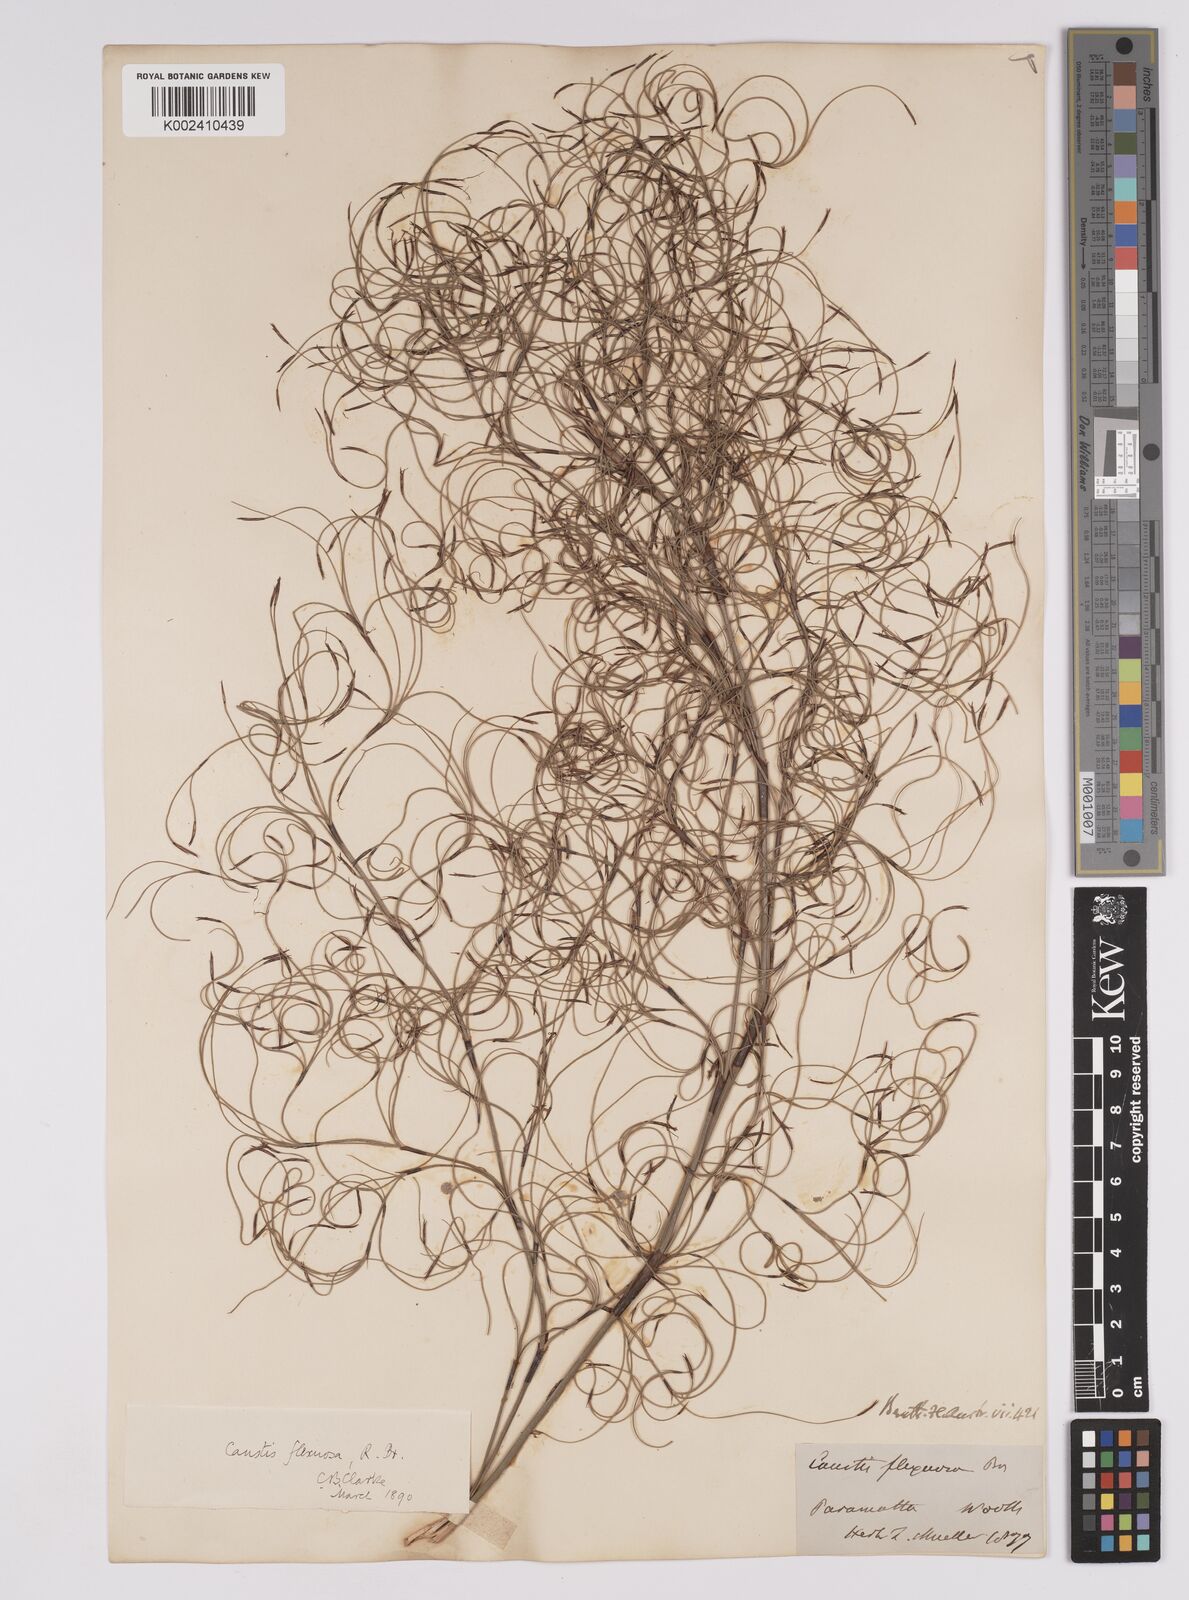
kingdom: Plantae
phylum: Tracheophyta
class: Liliopsida
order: Poales
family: Cyperaceae
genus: Caustis
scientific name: Caustis flexuosa
